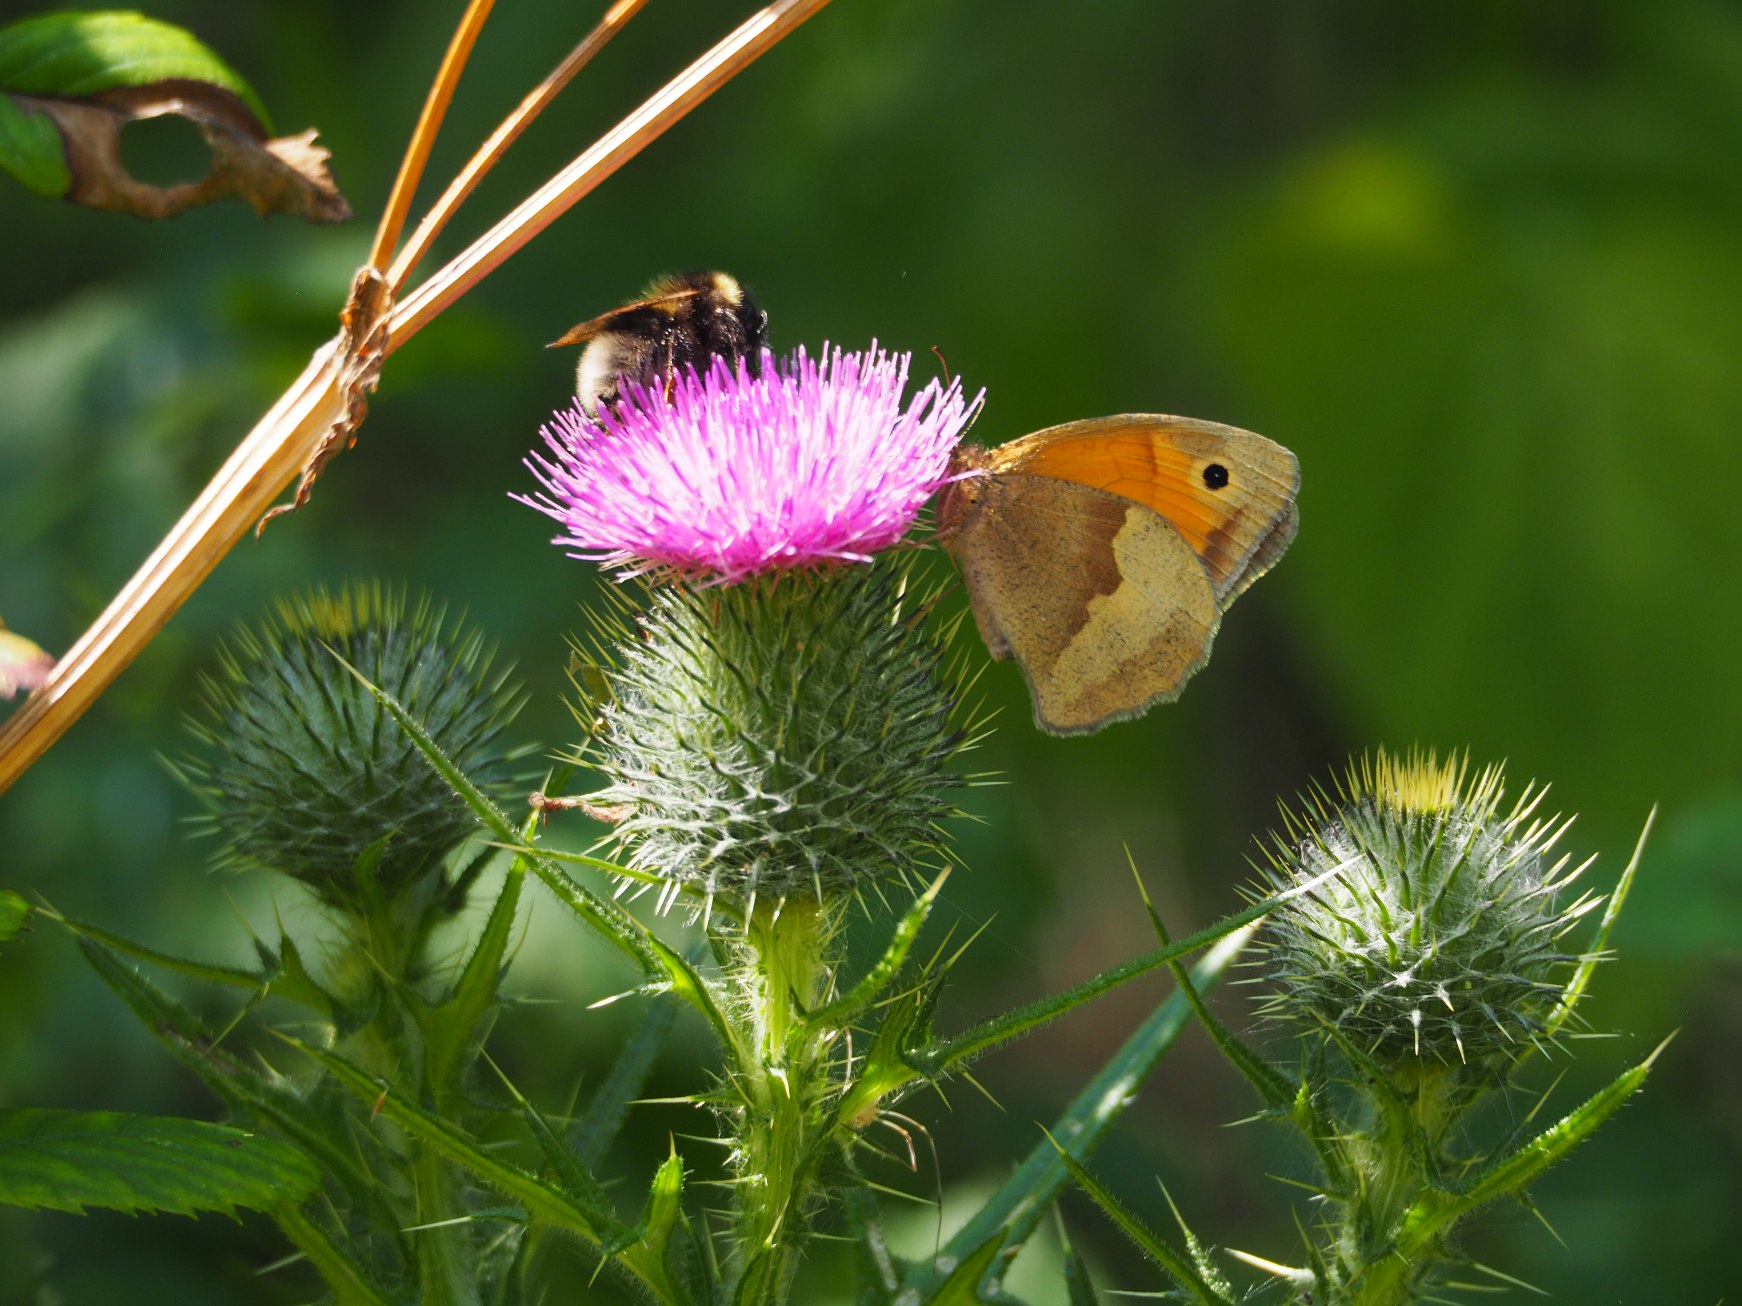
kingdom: Animalia
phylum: Arthropoda
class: Insecta
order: Lepidoptera
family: Nymphalidae
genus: Maniola
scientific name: Maniola jurtina
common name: Græsrandøje
